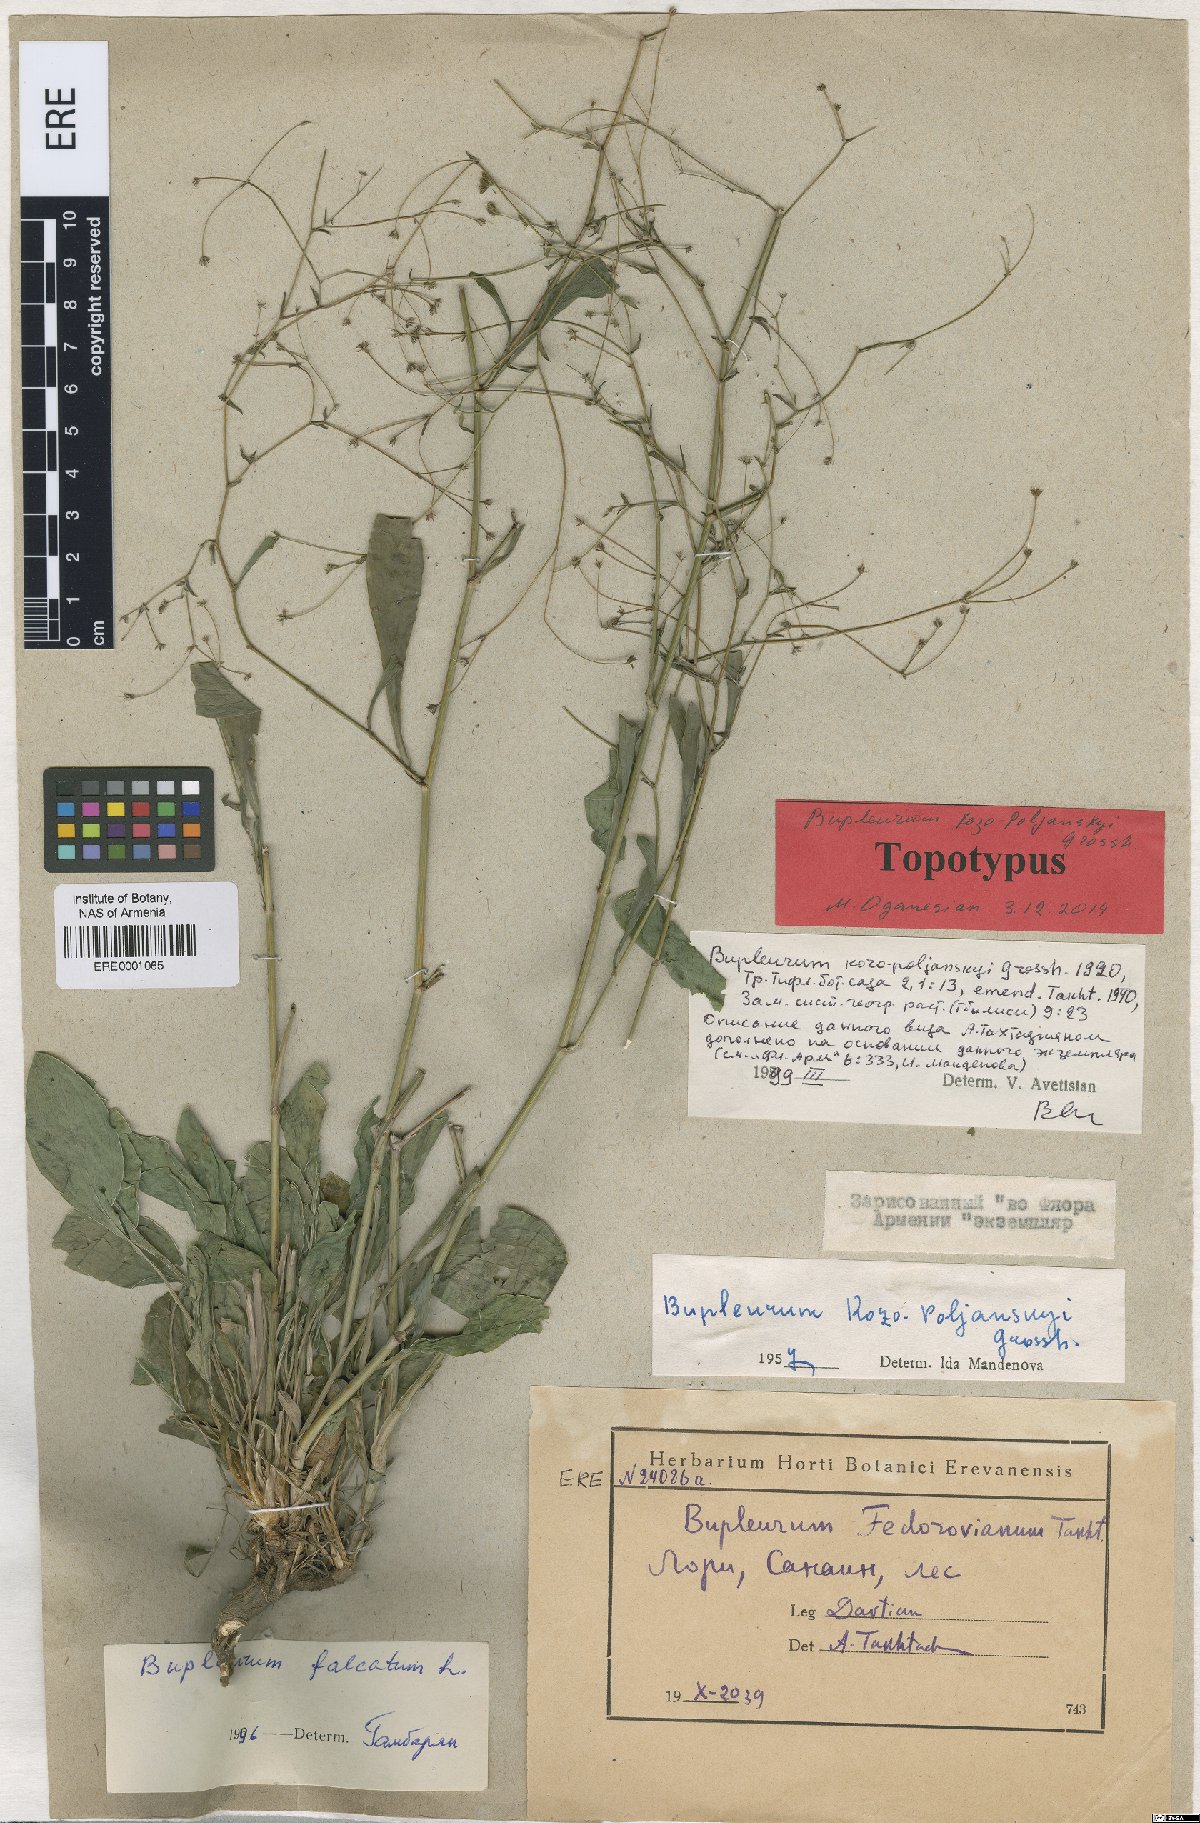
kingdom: Plantae
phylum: Tracheophyta
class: Magnoliopsida
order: Apiales
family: Apiaceae
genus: Bupleurum
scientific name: Bupleurum kosopolianskyi
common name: Kozo-poljanskyi's thoroughwax
